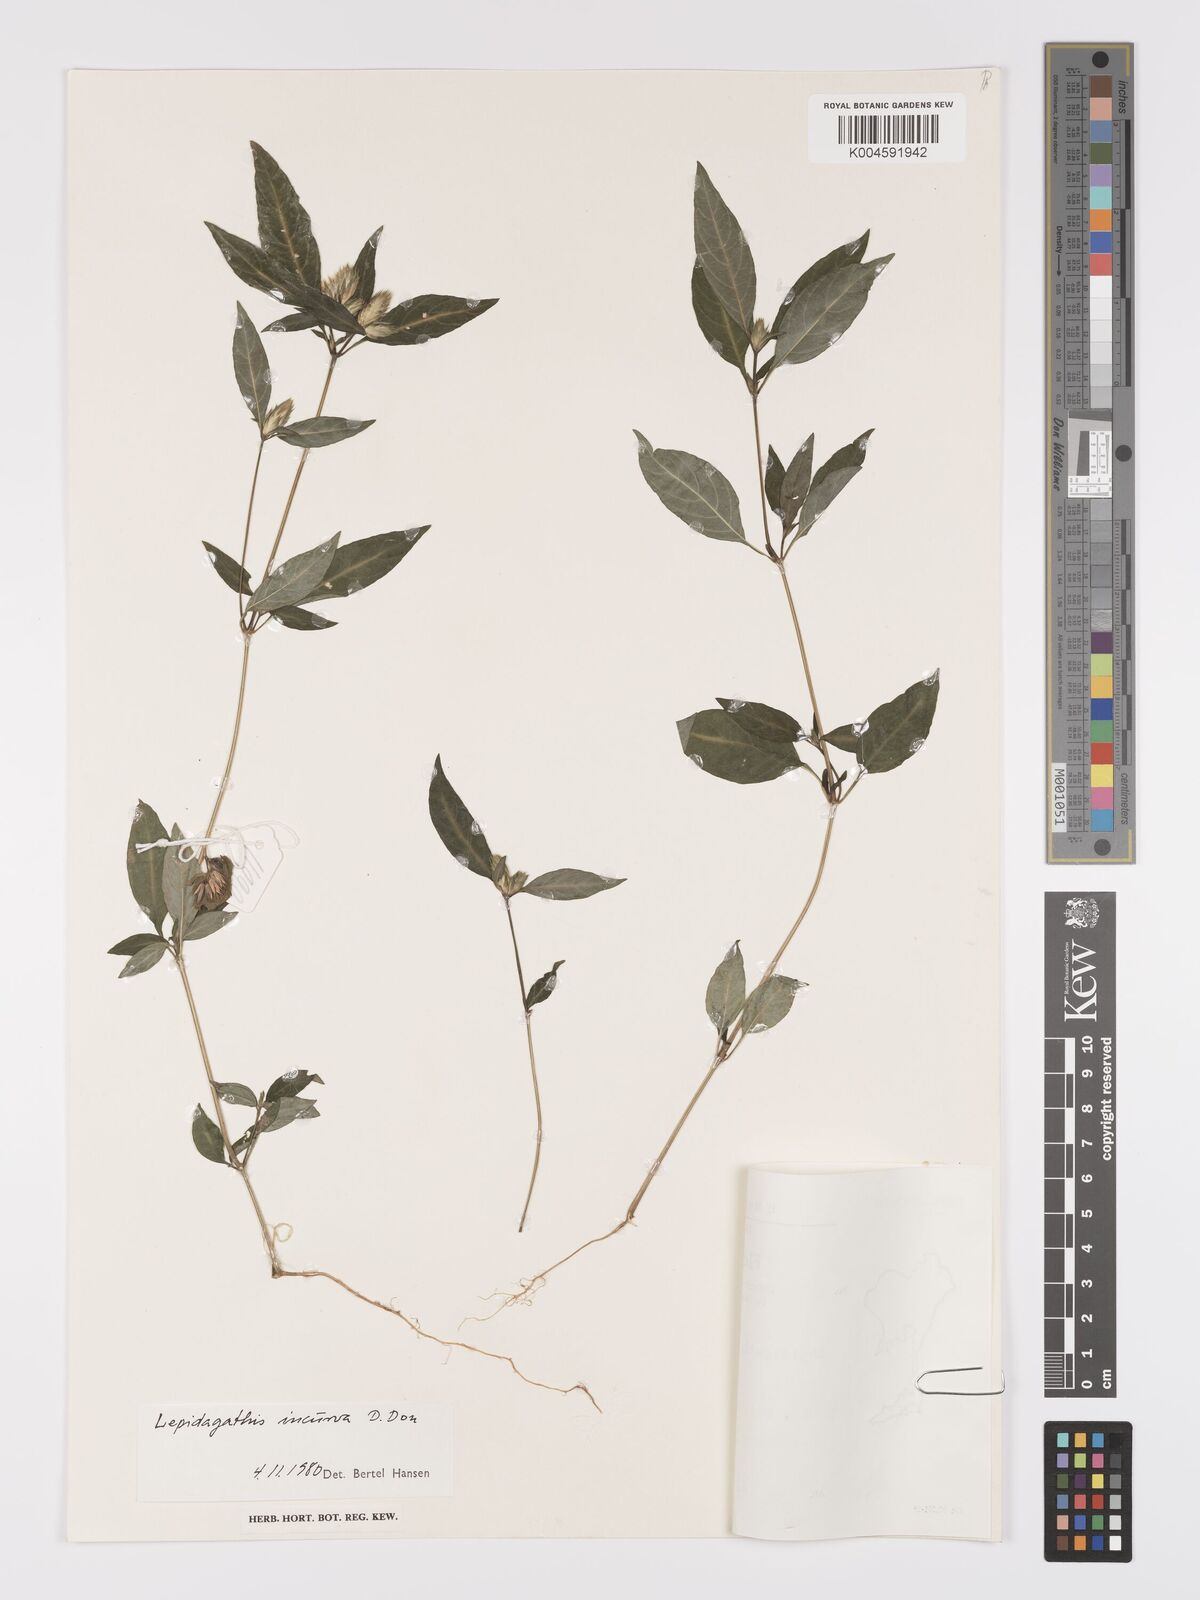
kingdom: Plantae
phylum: Tracheophyta
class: Magnoliopsida
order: Lamiales
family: Acanthaceae
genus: Lepidagathis
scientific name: Lepidagathis incurva
